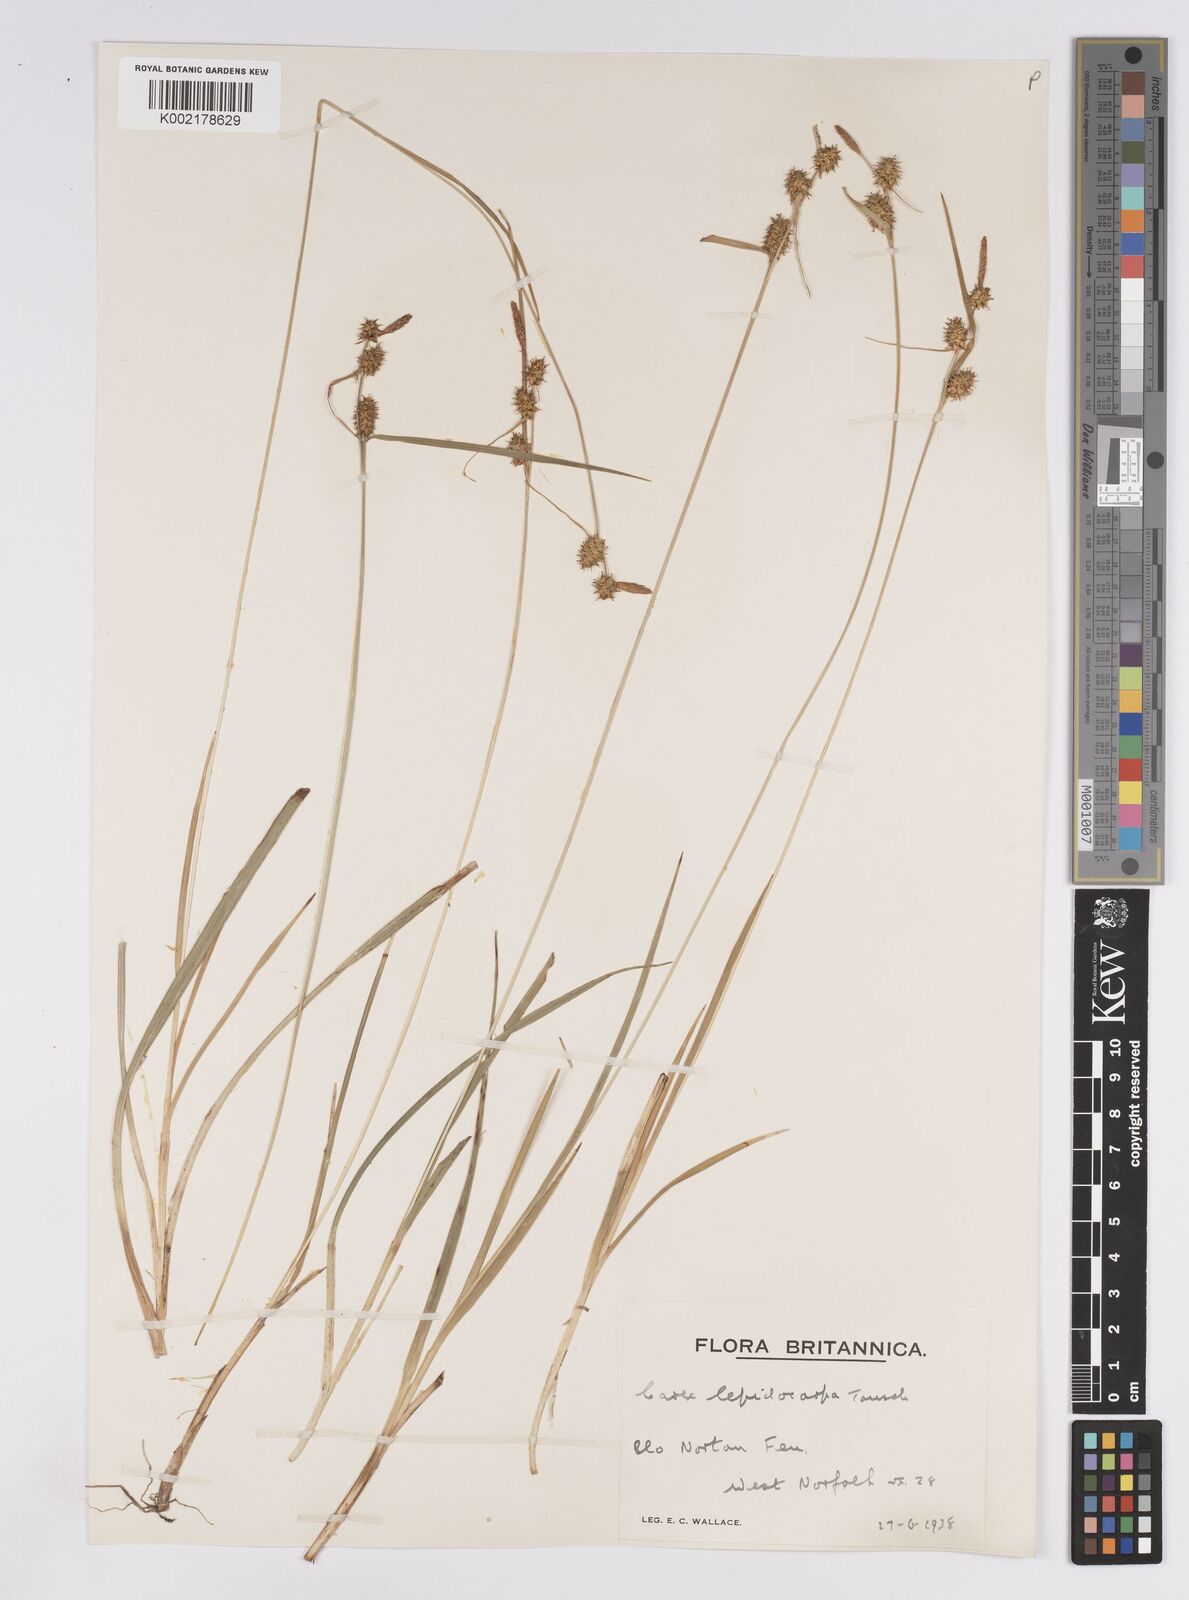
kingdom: Plantae
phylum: Tracheophyta
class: Liliopsida
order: Poales
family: Cyperaceae
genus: Carex
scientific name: Carex lepidocarpa
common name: Long-stalked yellow-sedge
